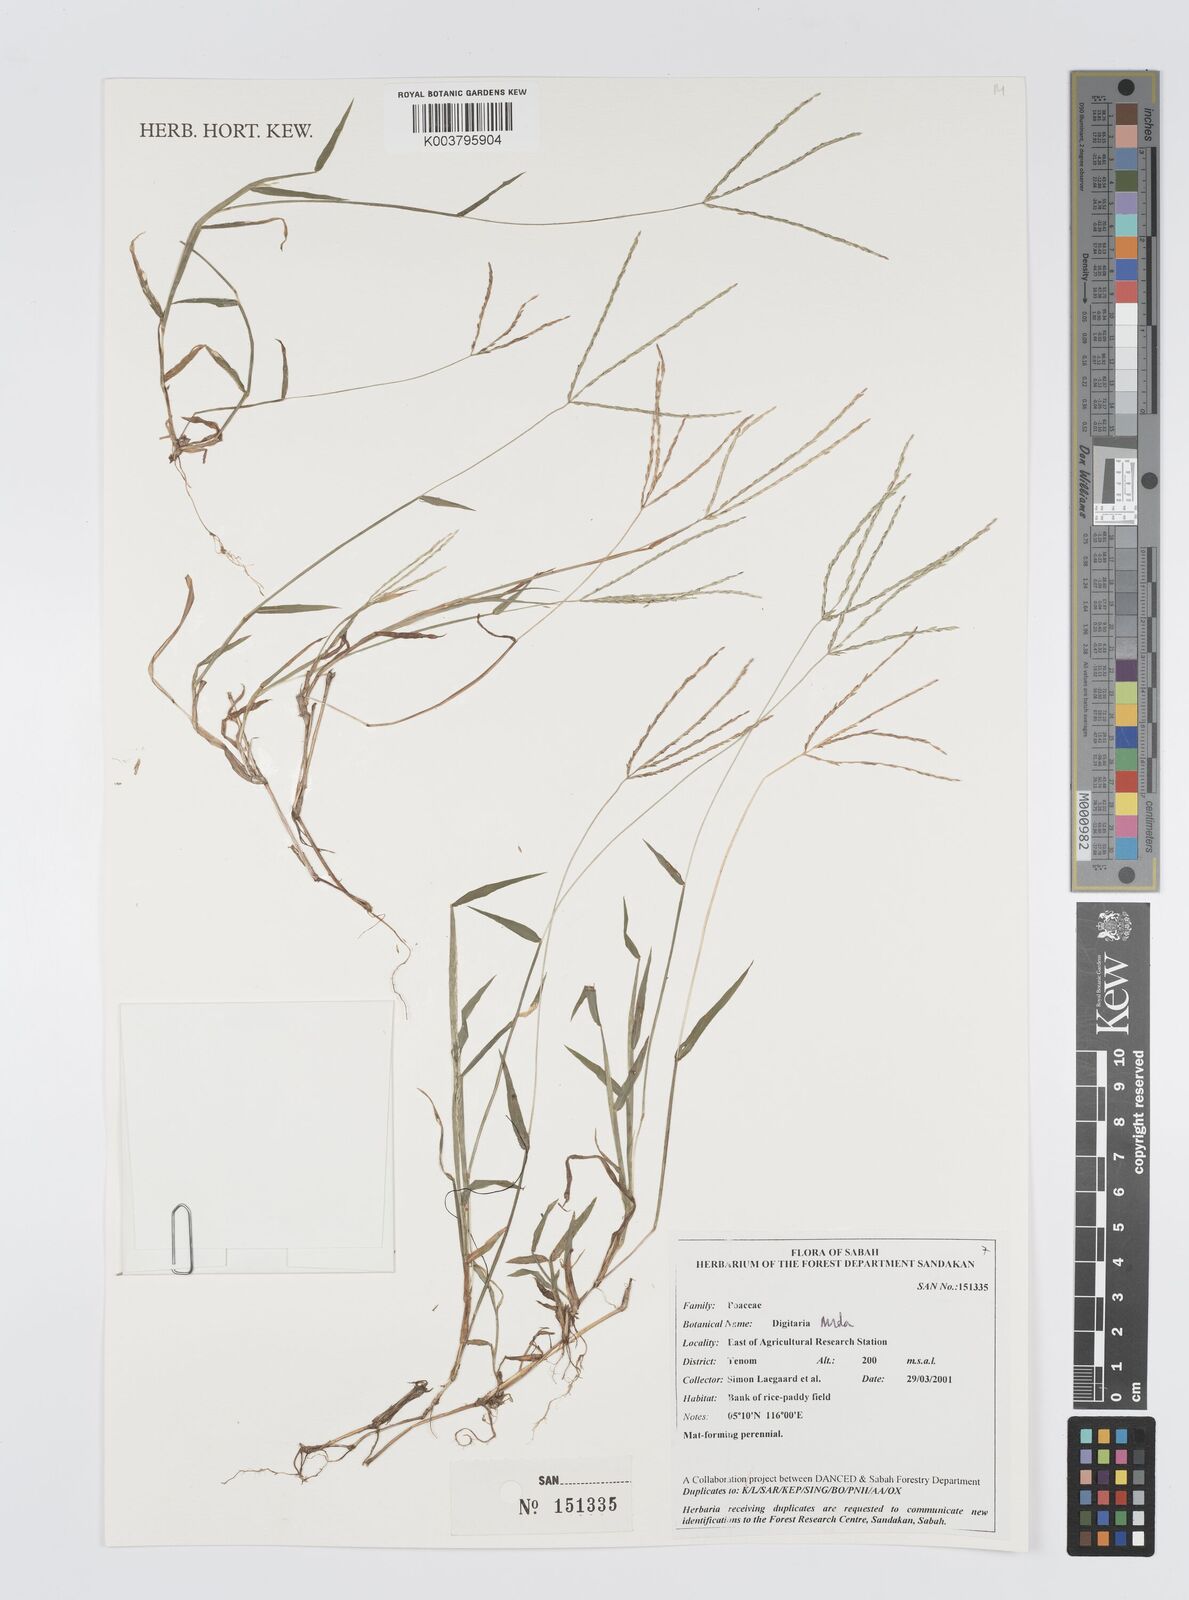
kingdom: Plantae
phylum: Tracheophyta
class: Liliopsida
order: Poales
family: Poaceae
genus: Digitaria
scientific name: Digitaria nuda
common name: Naked crabgrass
